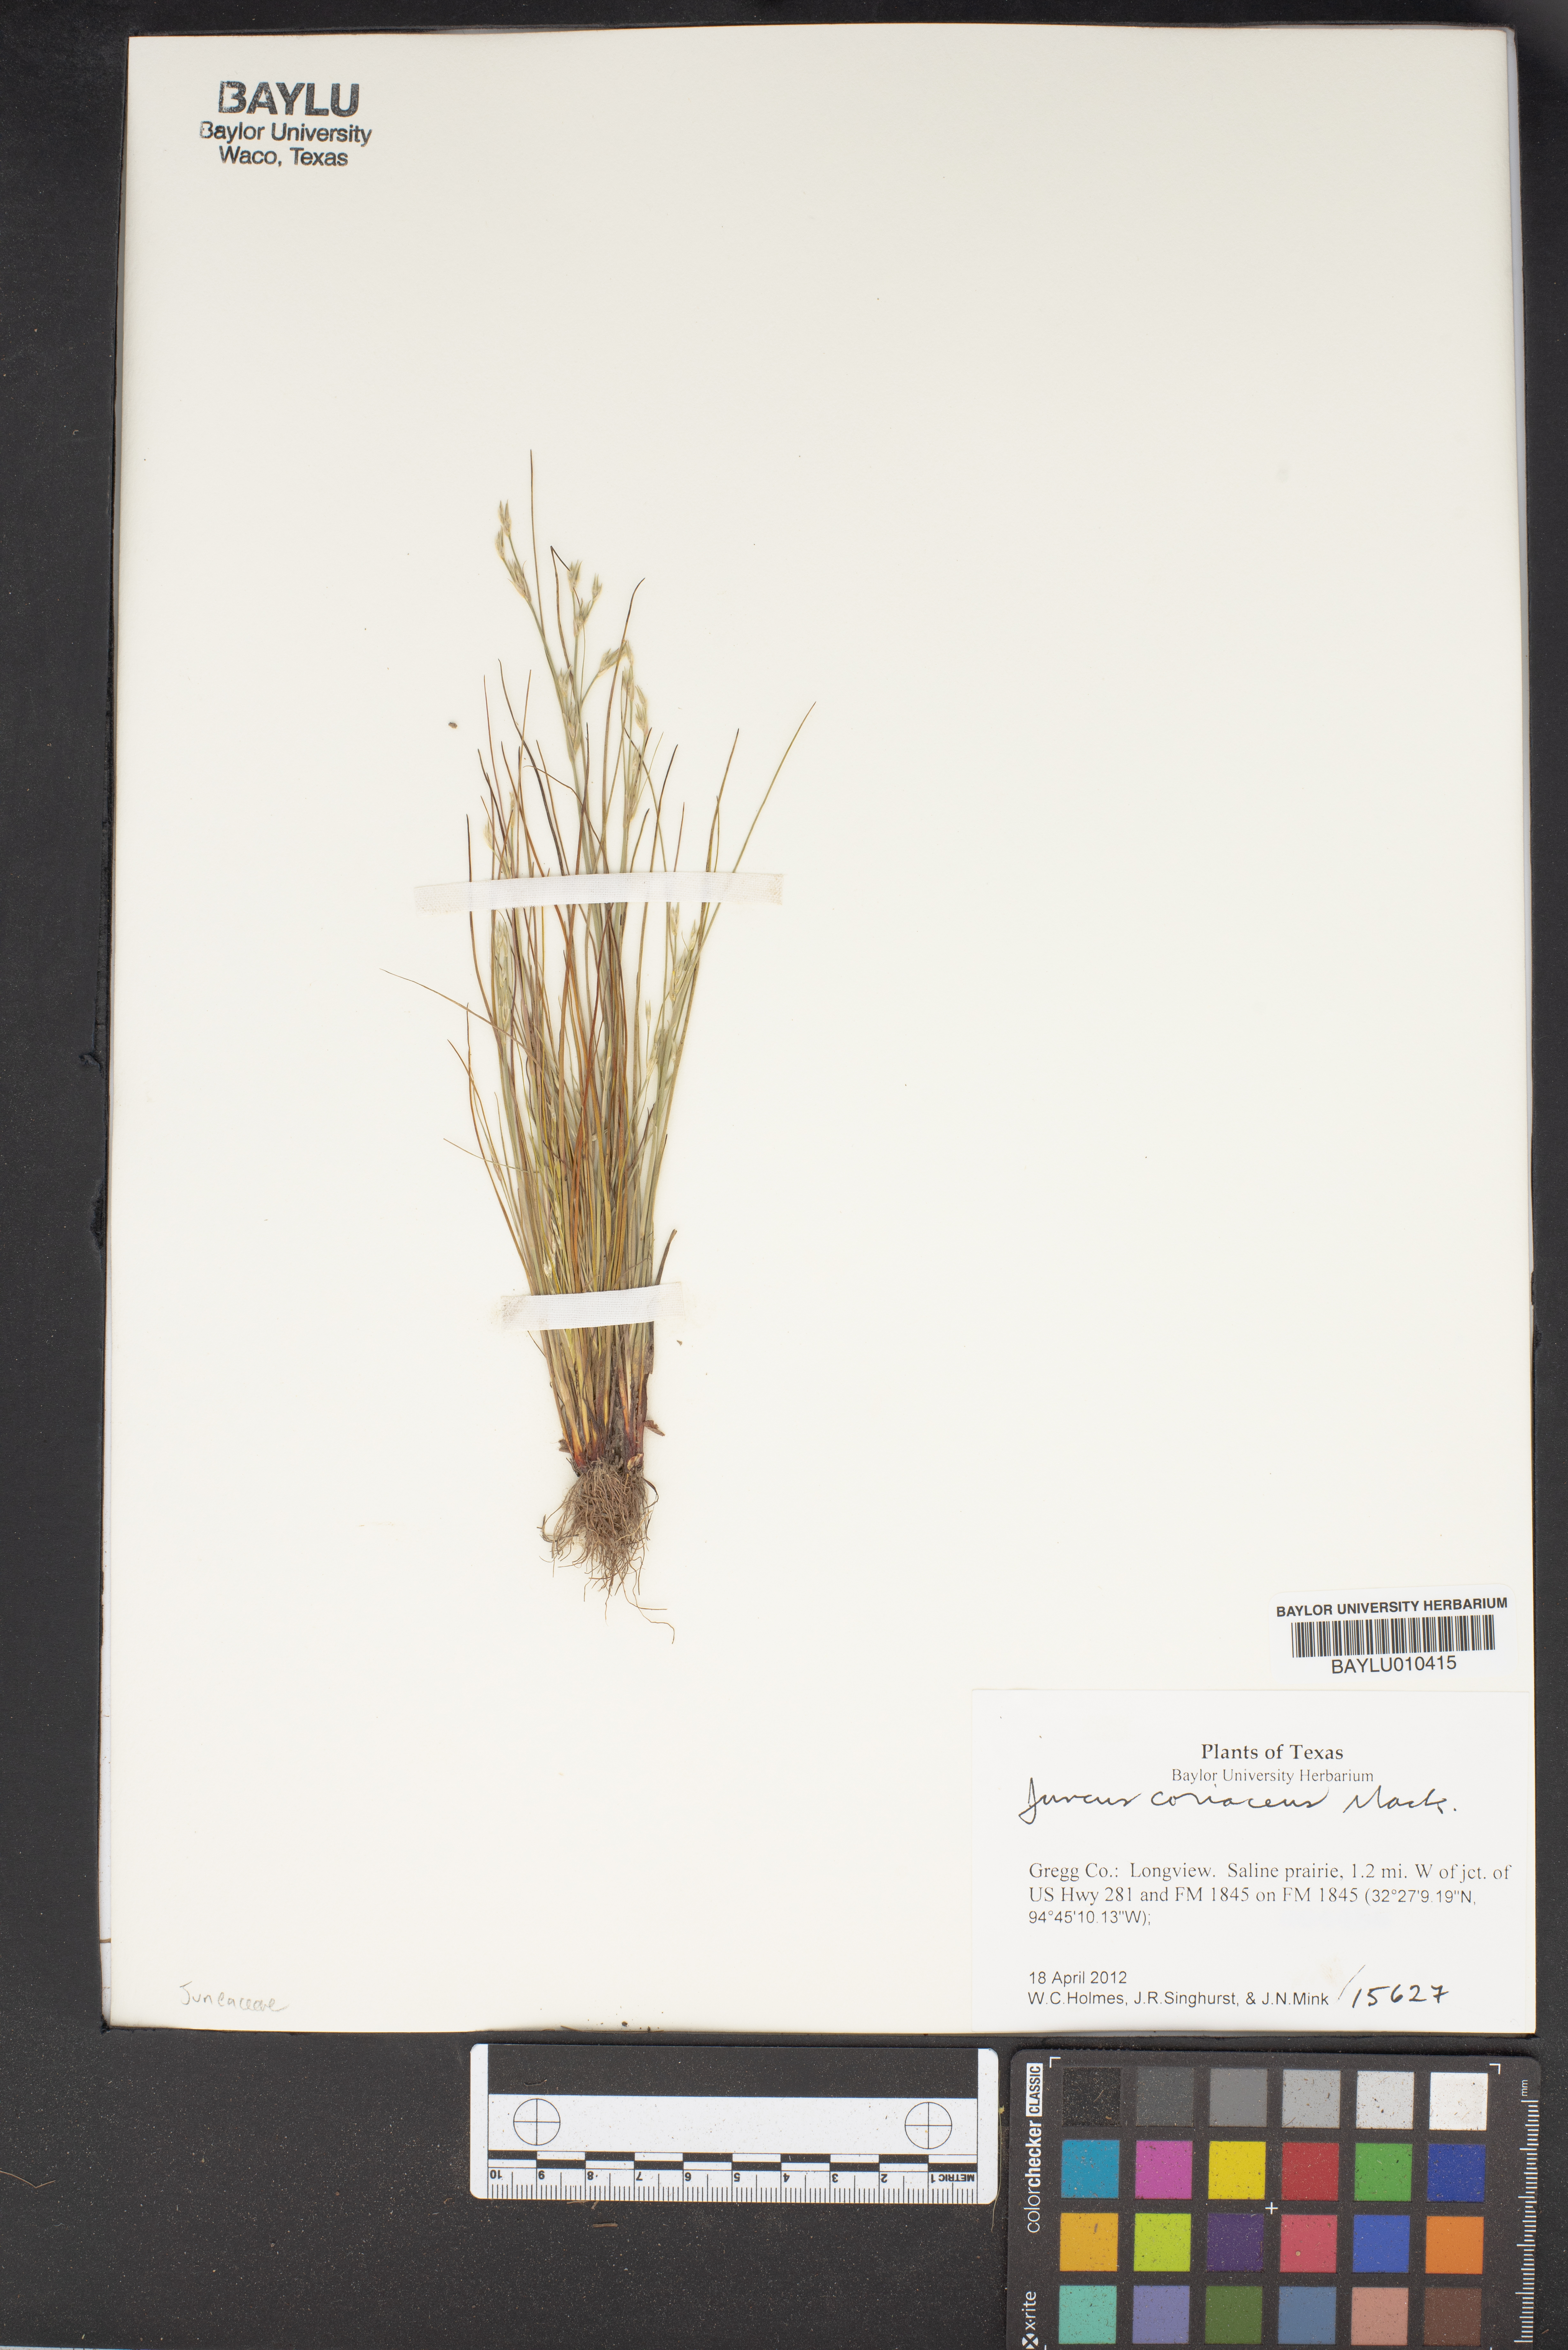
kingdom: Plantae
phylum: Tracheophyta
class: Liliopsida
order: Poales
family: Juncaceae
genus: Juncus
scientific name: Juncus coriaceus
